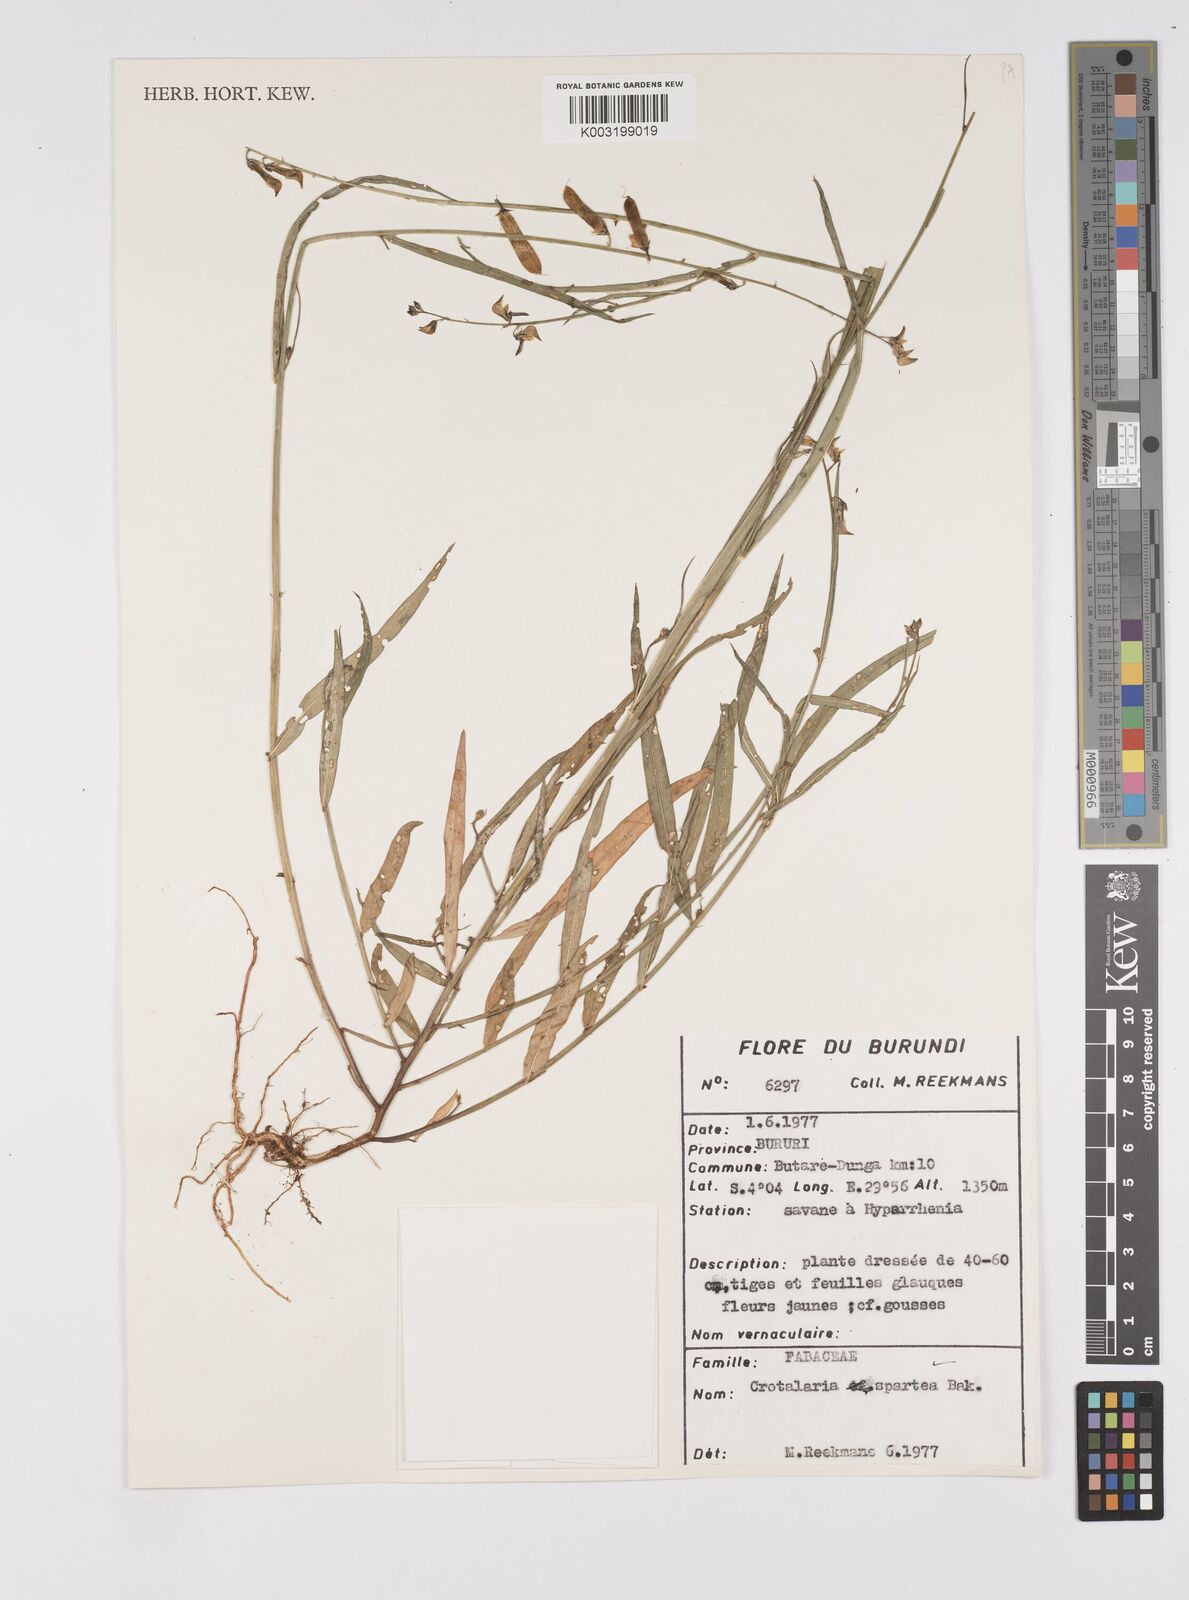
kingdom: Plantae
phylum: Tracheophyta
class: Magnoliopsida
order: Fabales
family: Fabaceae
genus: Crotalaria
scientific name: Crotalaria spartea
